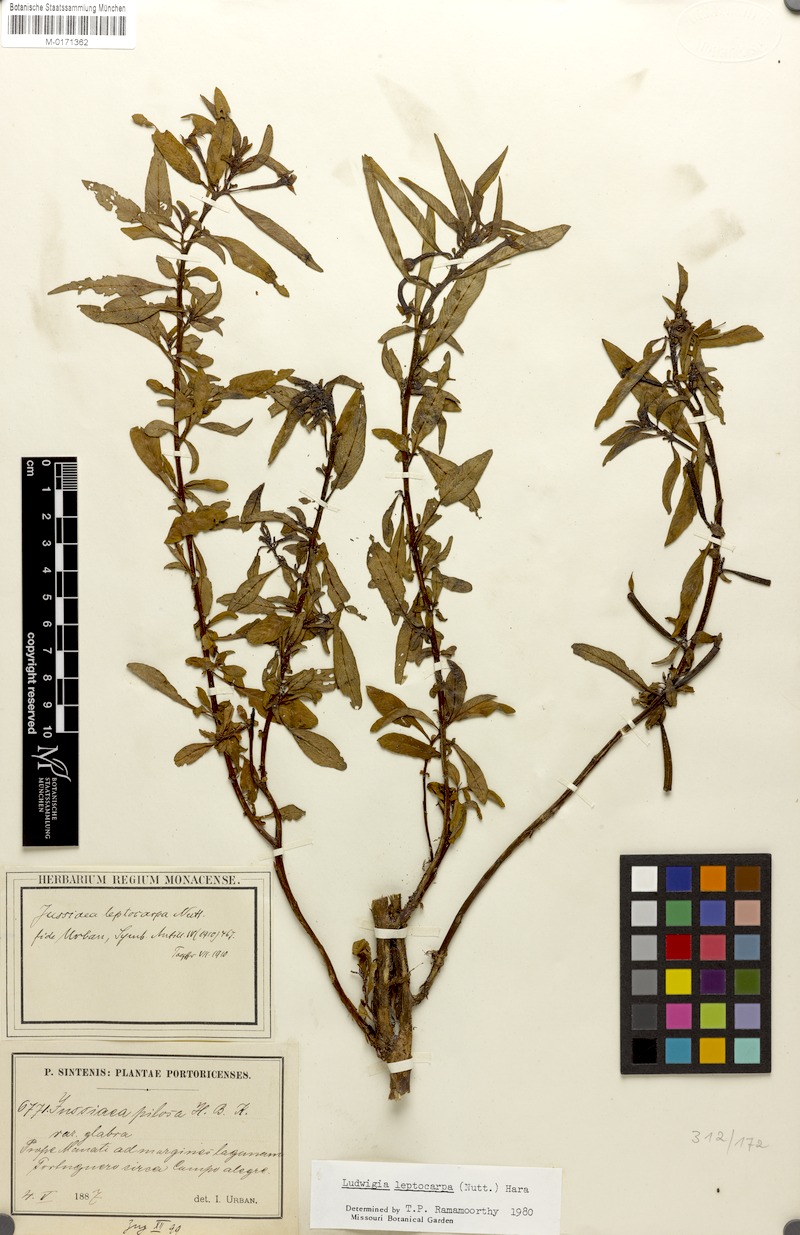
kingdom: Plantae
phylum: Tracheophyta
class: Magnoliopsida
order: Myrtales
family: Onagraceae
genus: Ludwigia
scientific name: Ludwigia leptocarpa
